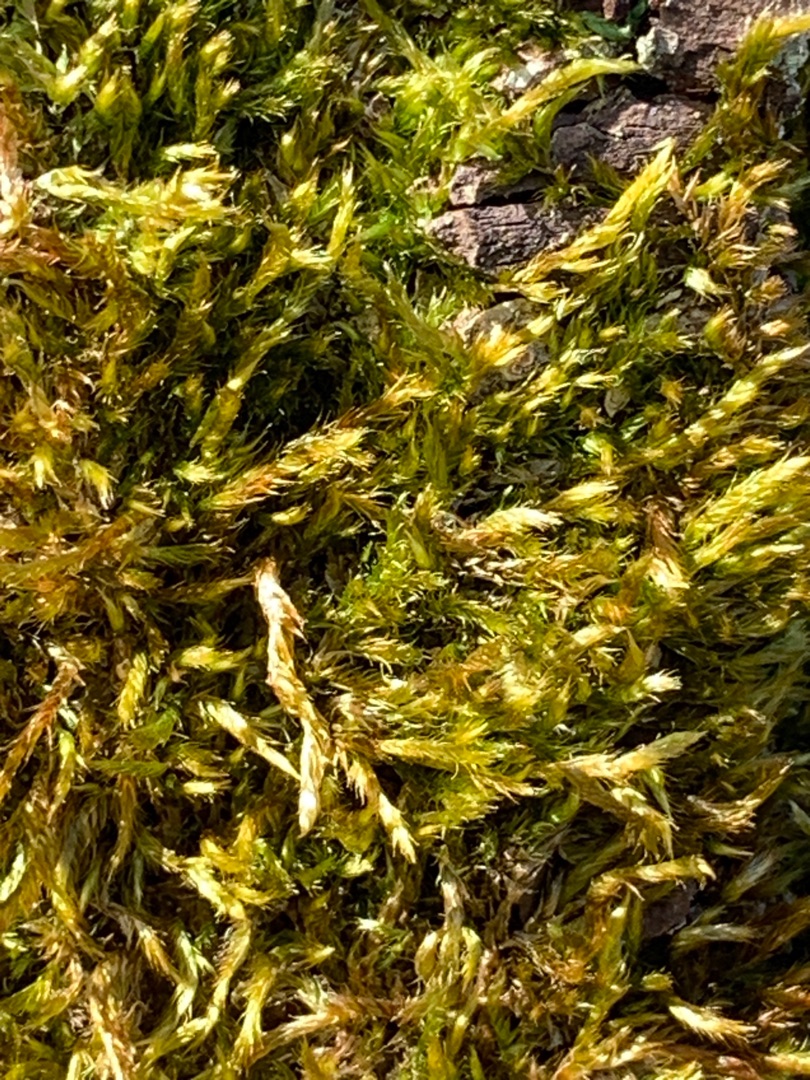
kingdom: Plantae
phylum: Bryophyta
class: Bryopsida
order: Hypnales
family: Hypnaceae
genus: Hypnum
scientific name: Hypnum cupressiforme
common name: Almindelig cypresmos
